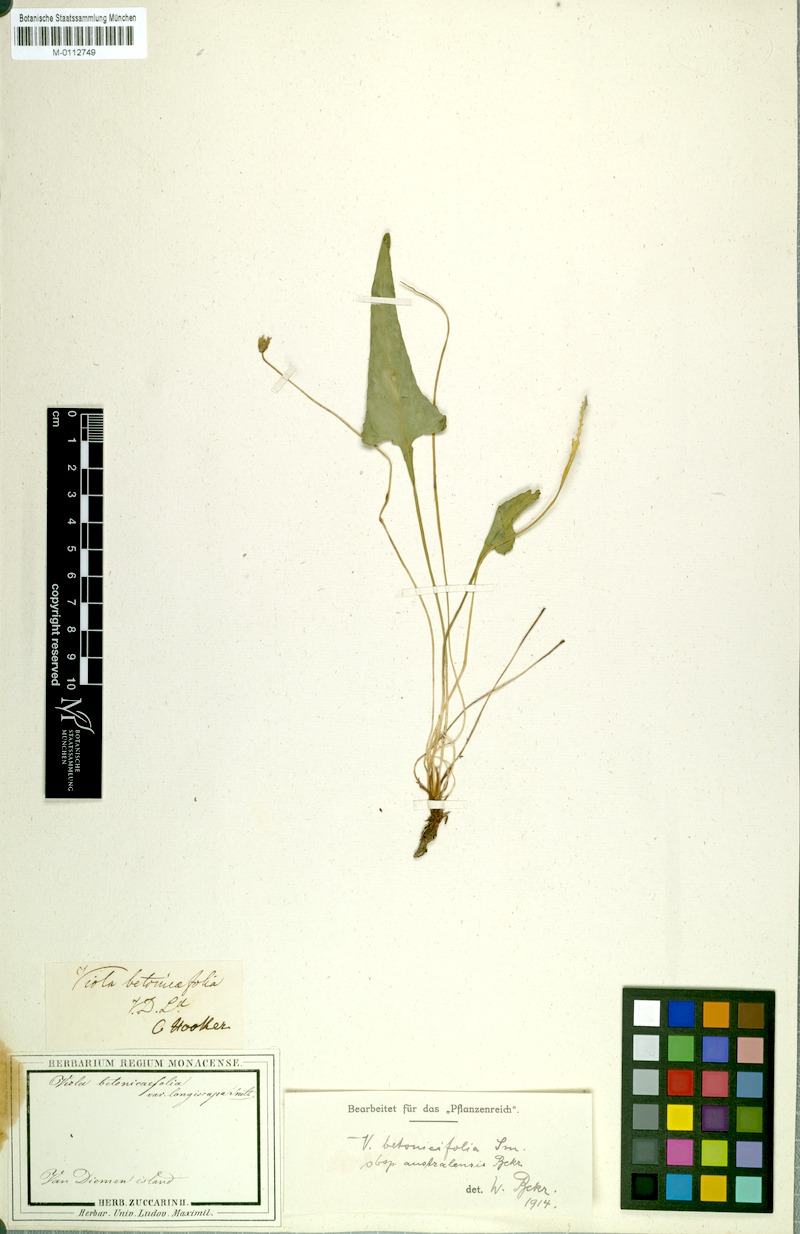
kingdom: Plantae
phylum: Tracheophyta
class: Magnoliopsida
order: Malpighiales
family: Violaceae
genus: Viola
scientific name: Viola betonicifolia
